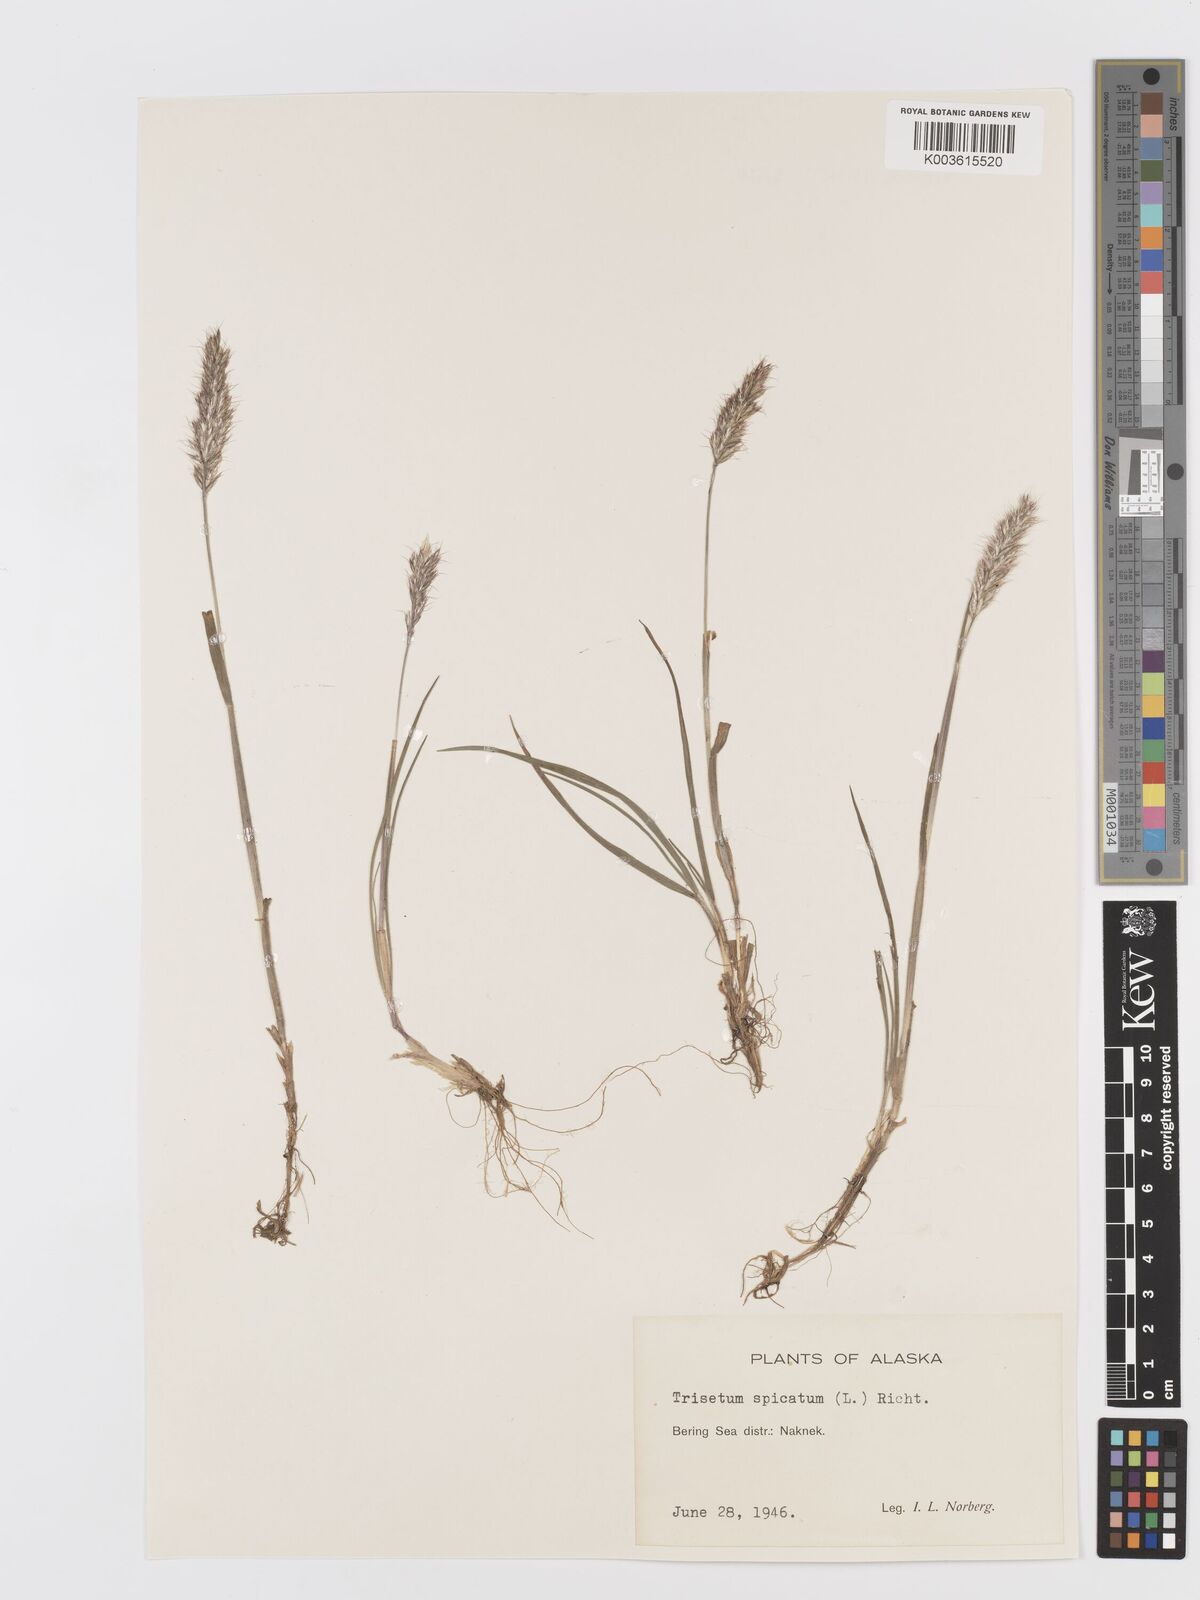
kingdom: Plantae
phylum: Tracheophyta
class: Liliopsida
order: Poales
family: Poaceae
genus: Koeleria
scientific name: Koeleria spicata
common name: Mountain trisetum
